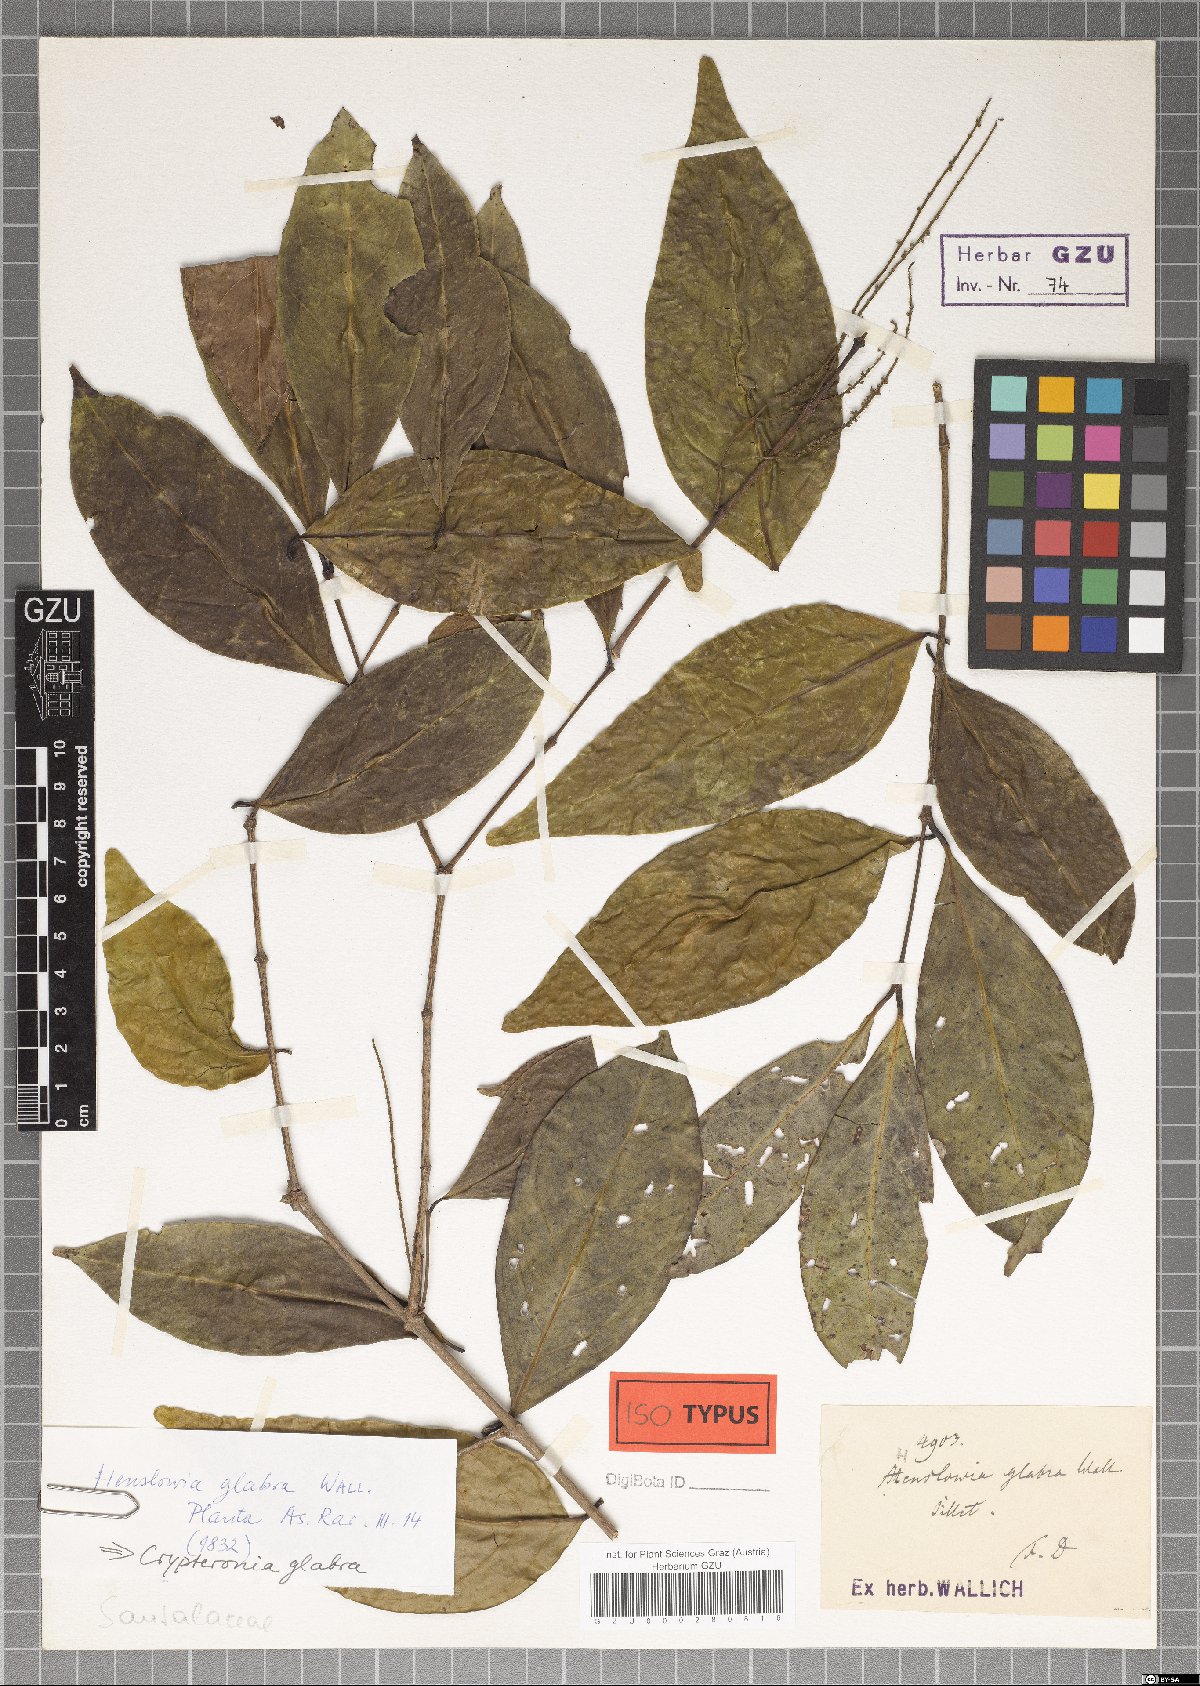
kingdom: Plantae
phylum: Tracheophyta
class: Magnoliopsida
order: Myrtales
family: Crypteroniaceae
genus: Crypteronia
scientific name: Crypteronia paniculata
